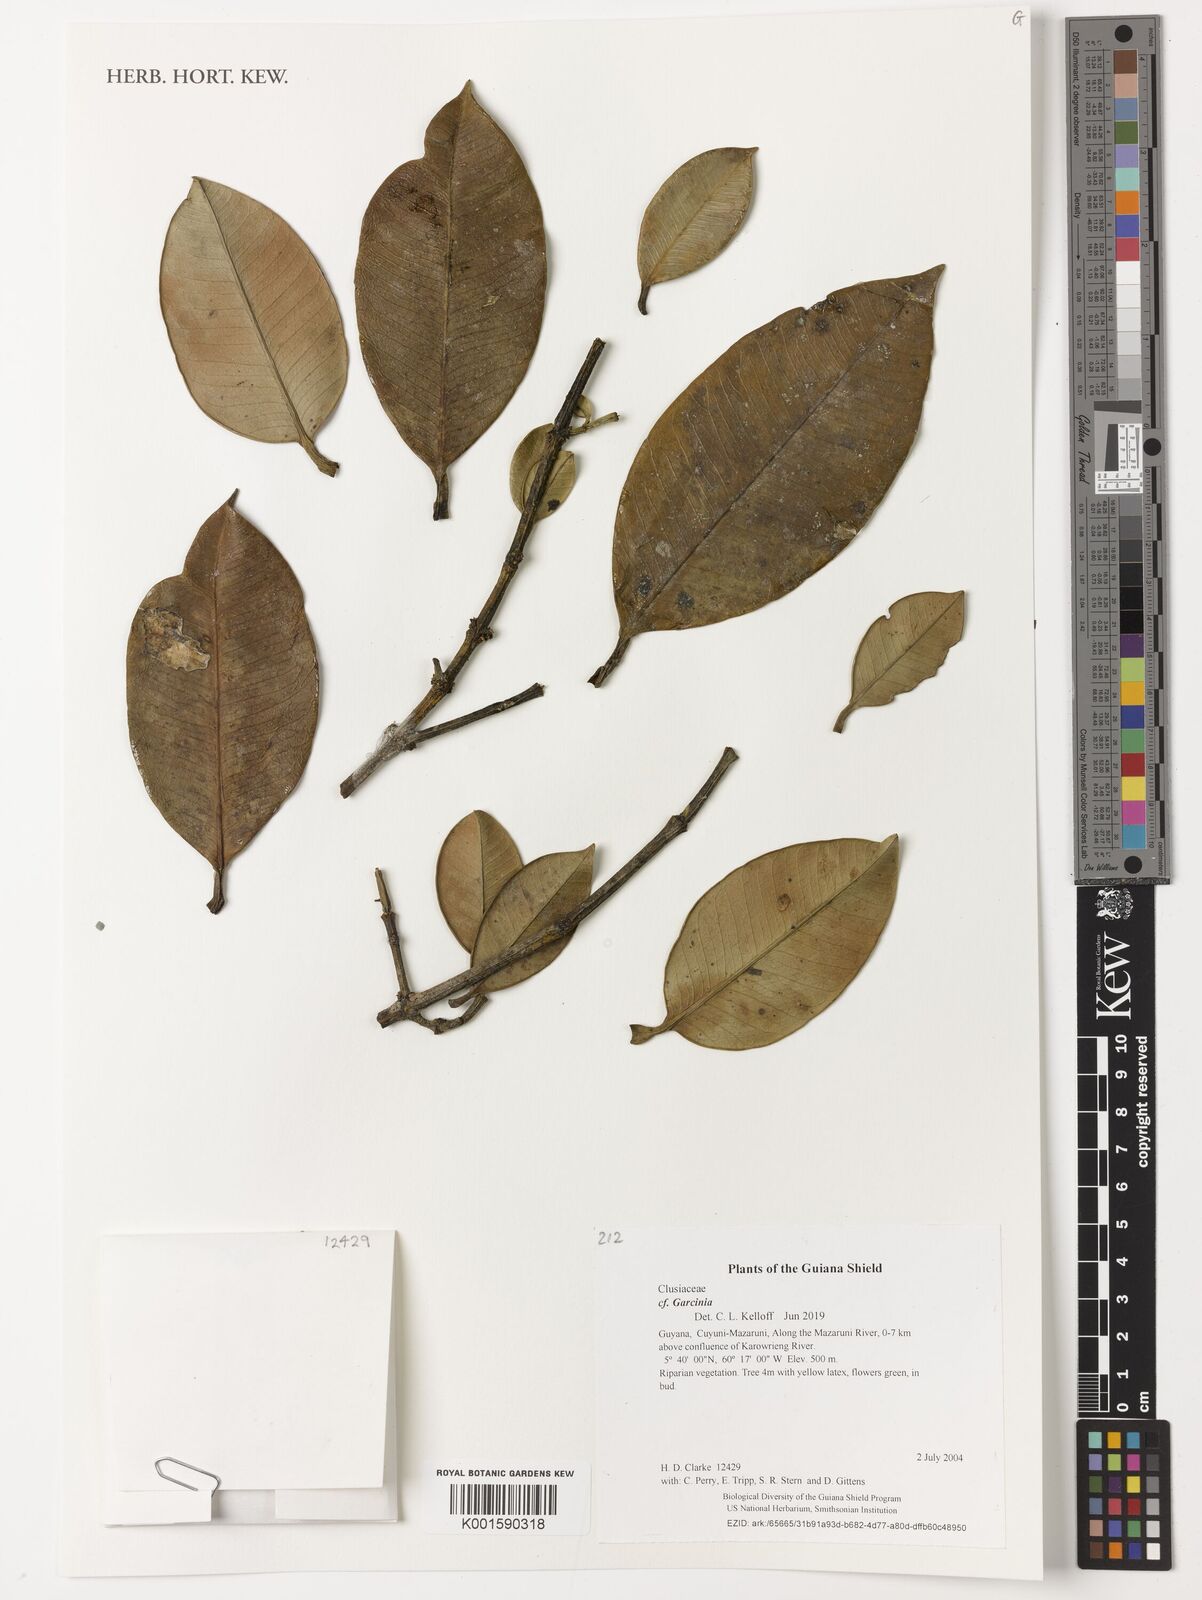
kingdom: Plantae
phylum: Tracheophyta
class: Magnoliopsida
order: Malpighiales
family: Clusiaceae
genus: Garcinia
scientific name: Garcinia
